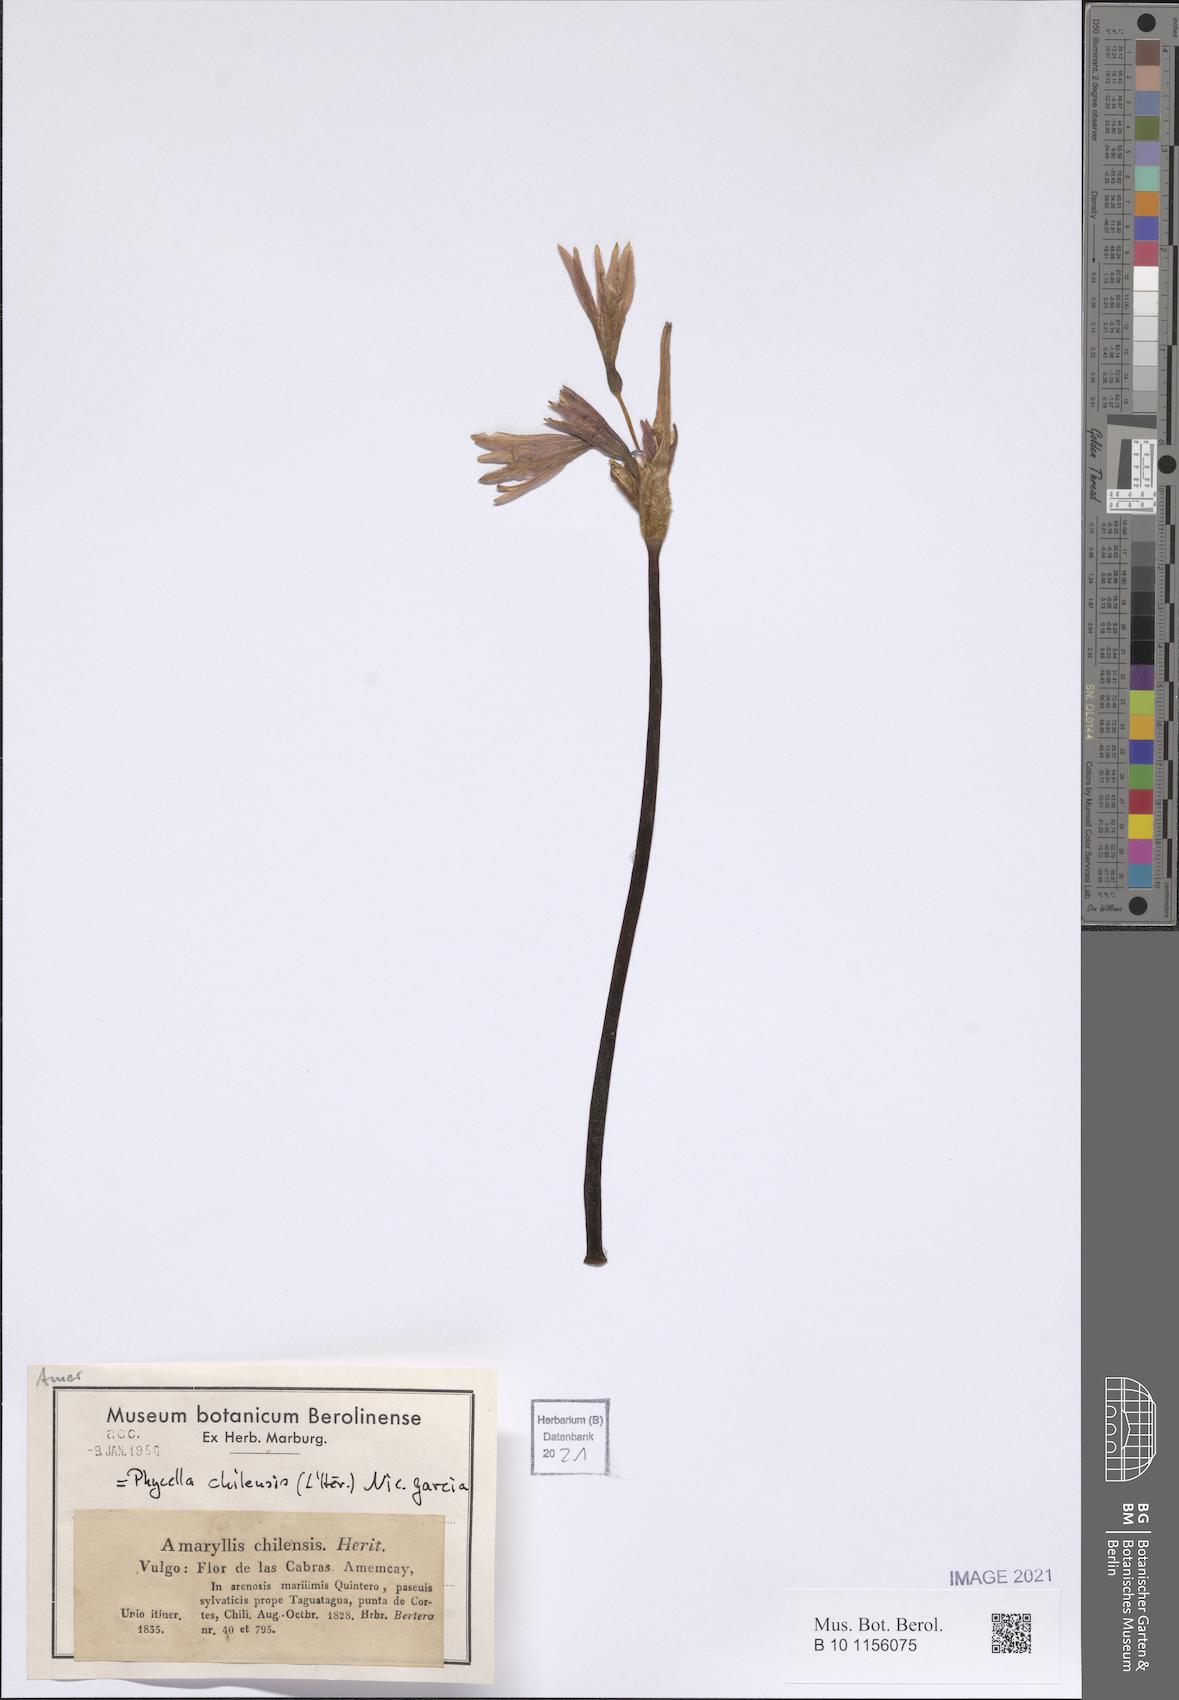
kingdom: Plantae
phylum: Tracheophyta
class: Liliopsida
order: Asparagales
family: Amaryllidaceae
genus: Phycella
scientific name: Phycella chilensis
